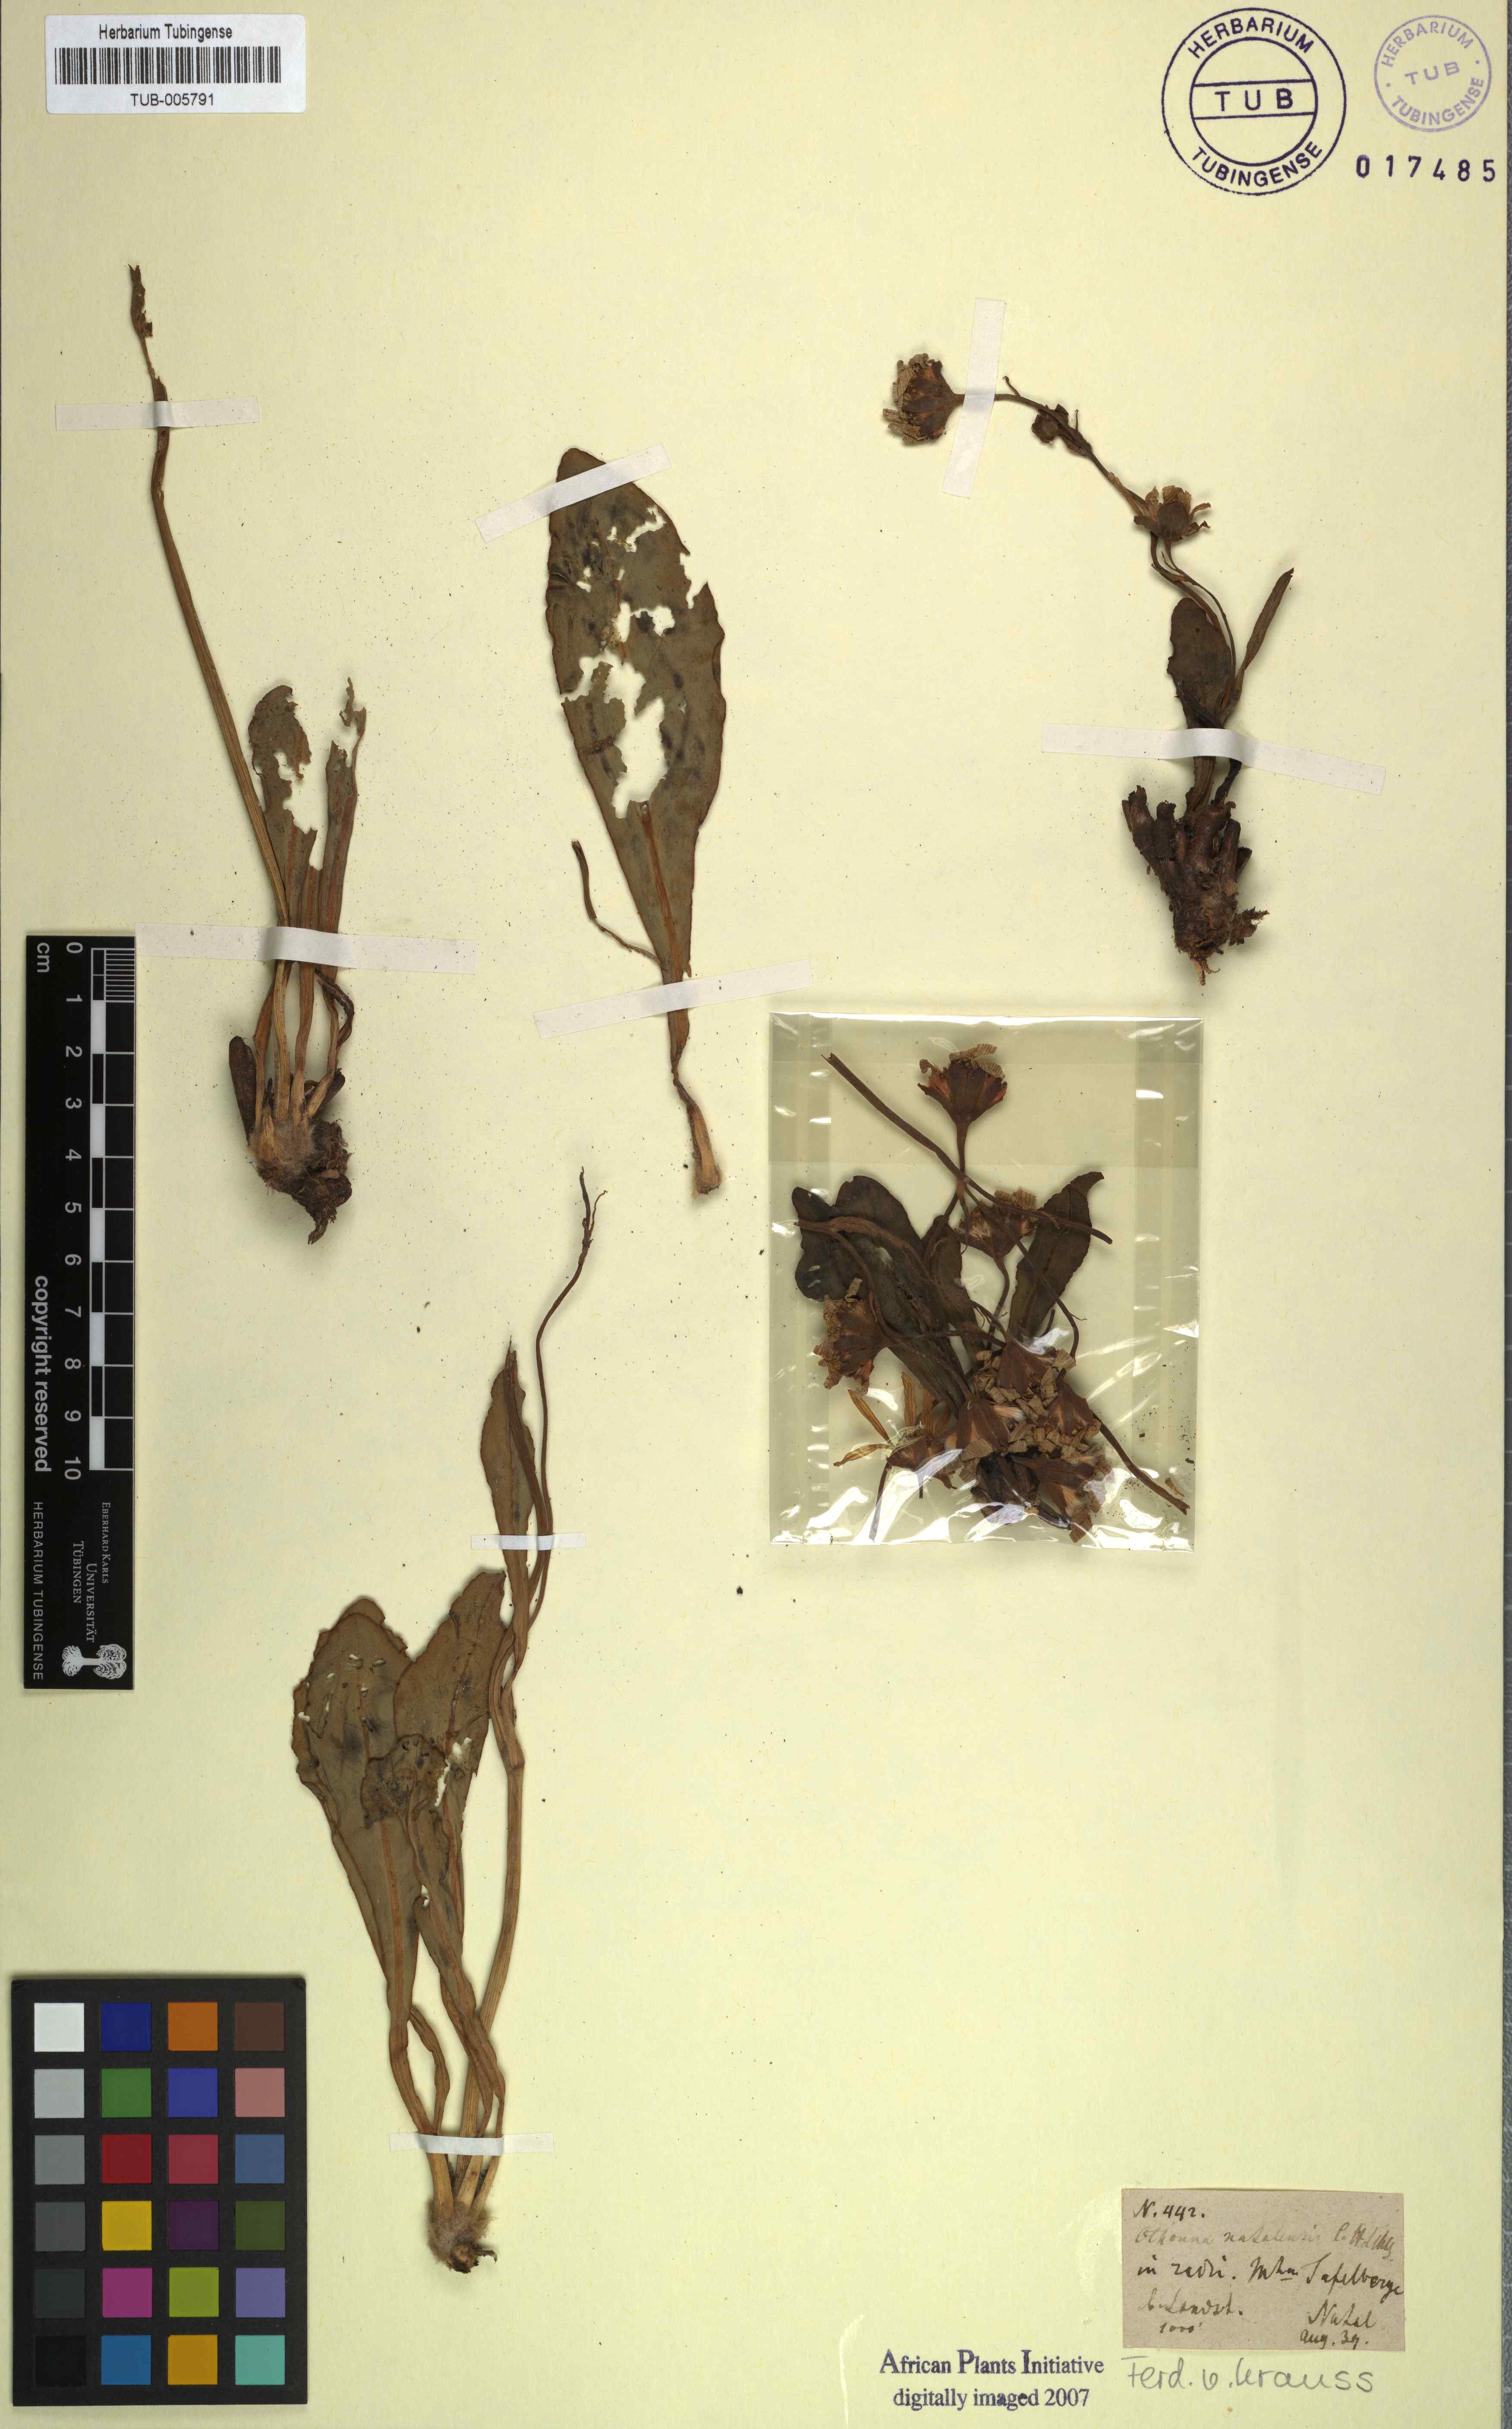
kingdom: Plantae
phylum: Tracheophyta
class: Magnoliopsida
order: Asterales
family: Asteraceae
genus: Othonna
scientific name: Othonna natalensis
